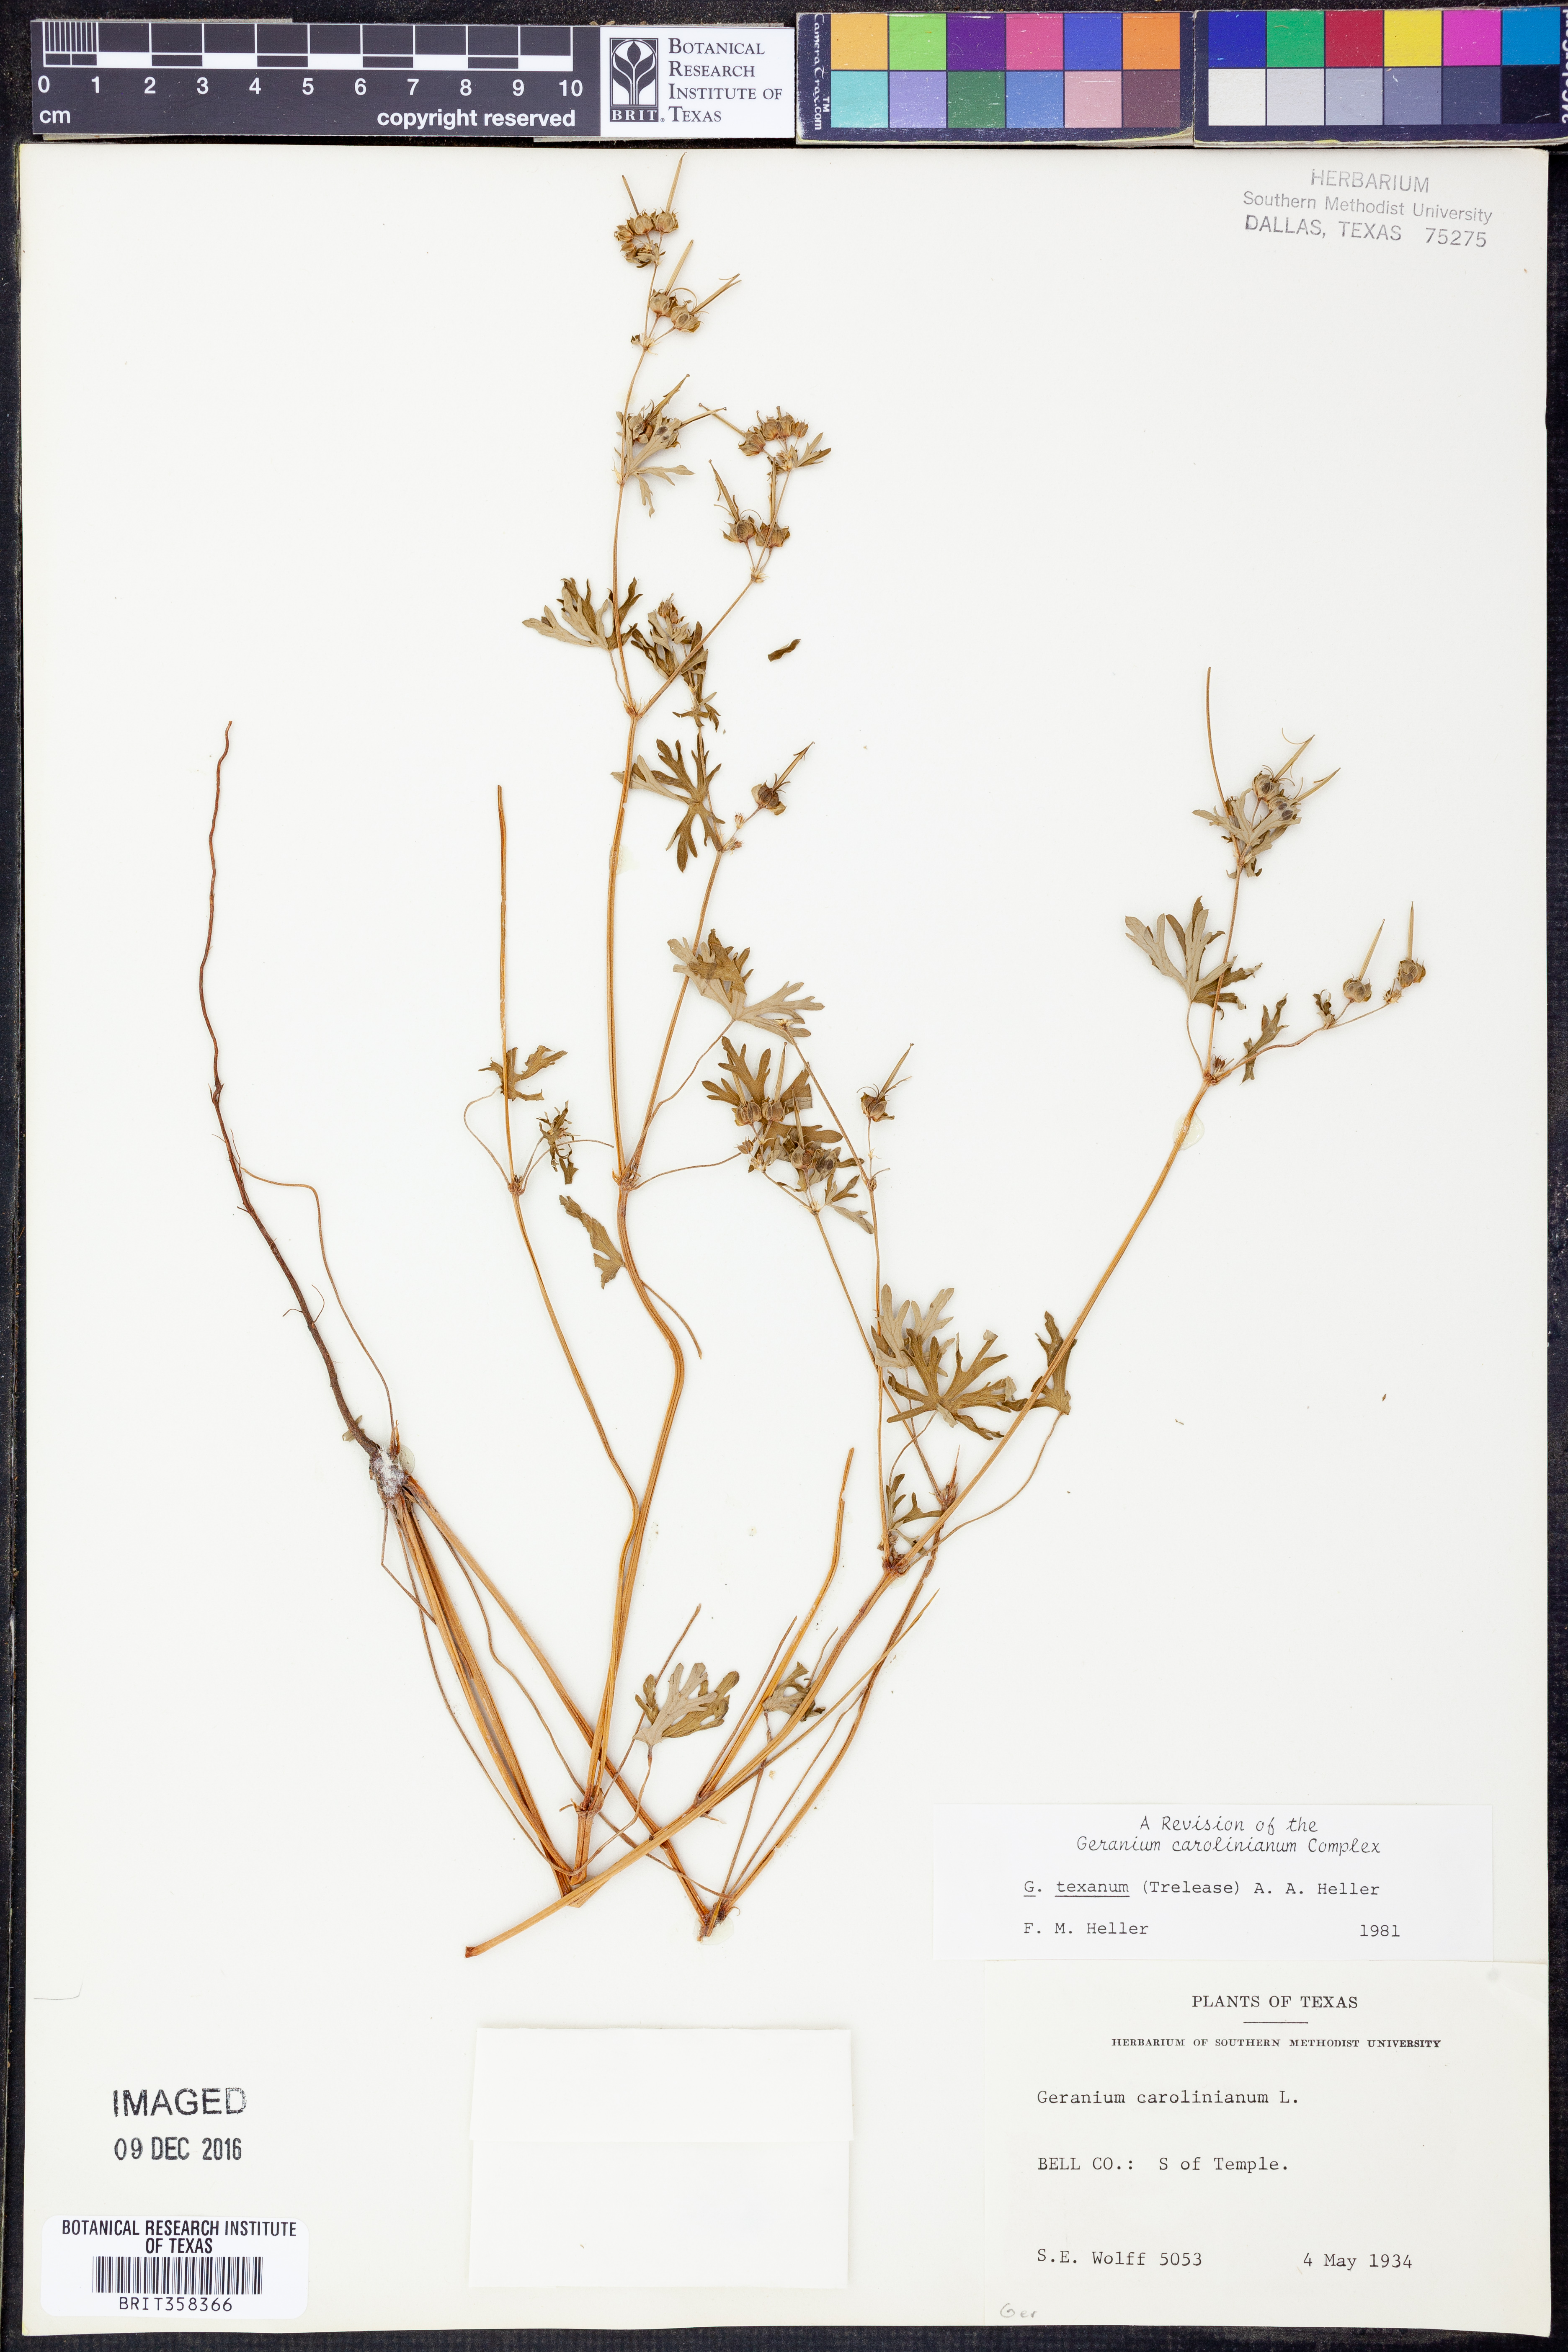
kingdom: Plantae
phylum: Tracheophyta
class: Magnoliopsida
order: Geraniales
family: Geraniaceae
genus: Geranium
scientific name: Geranium texanum
